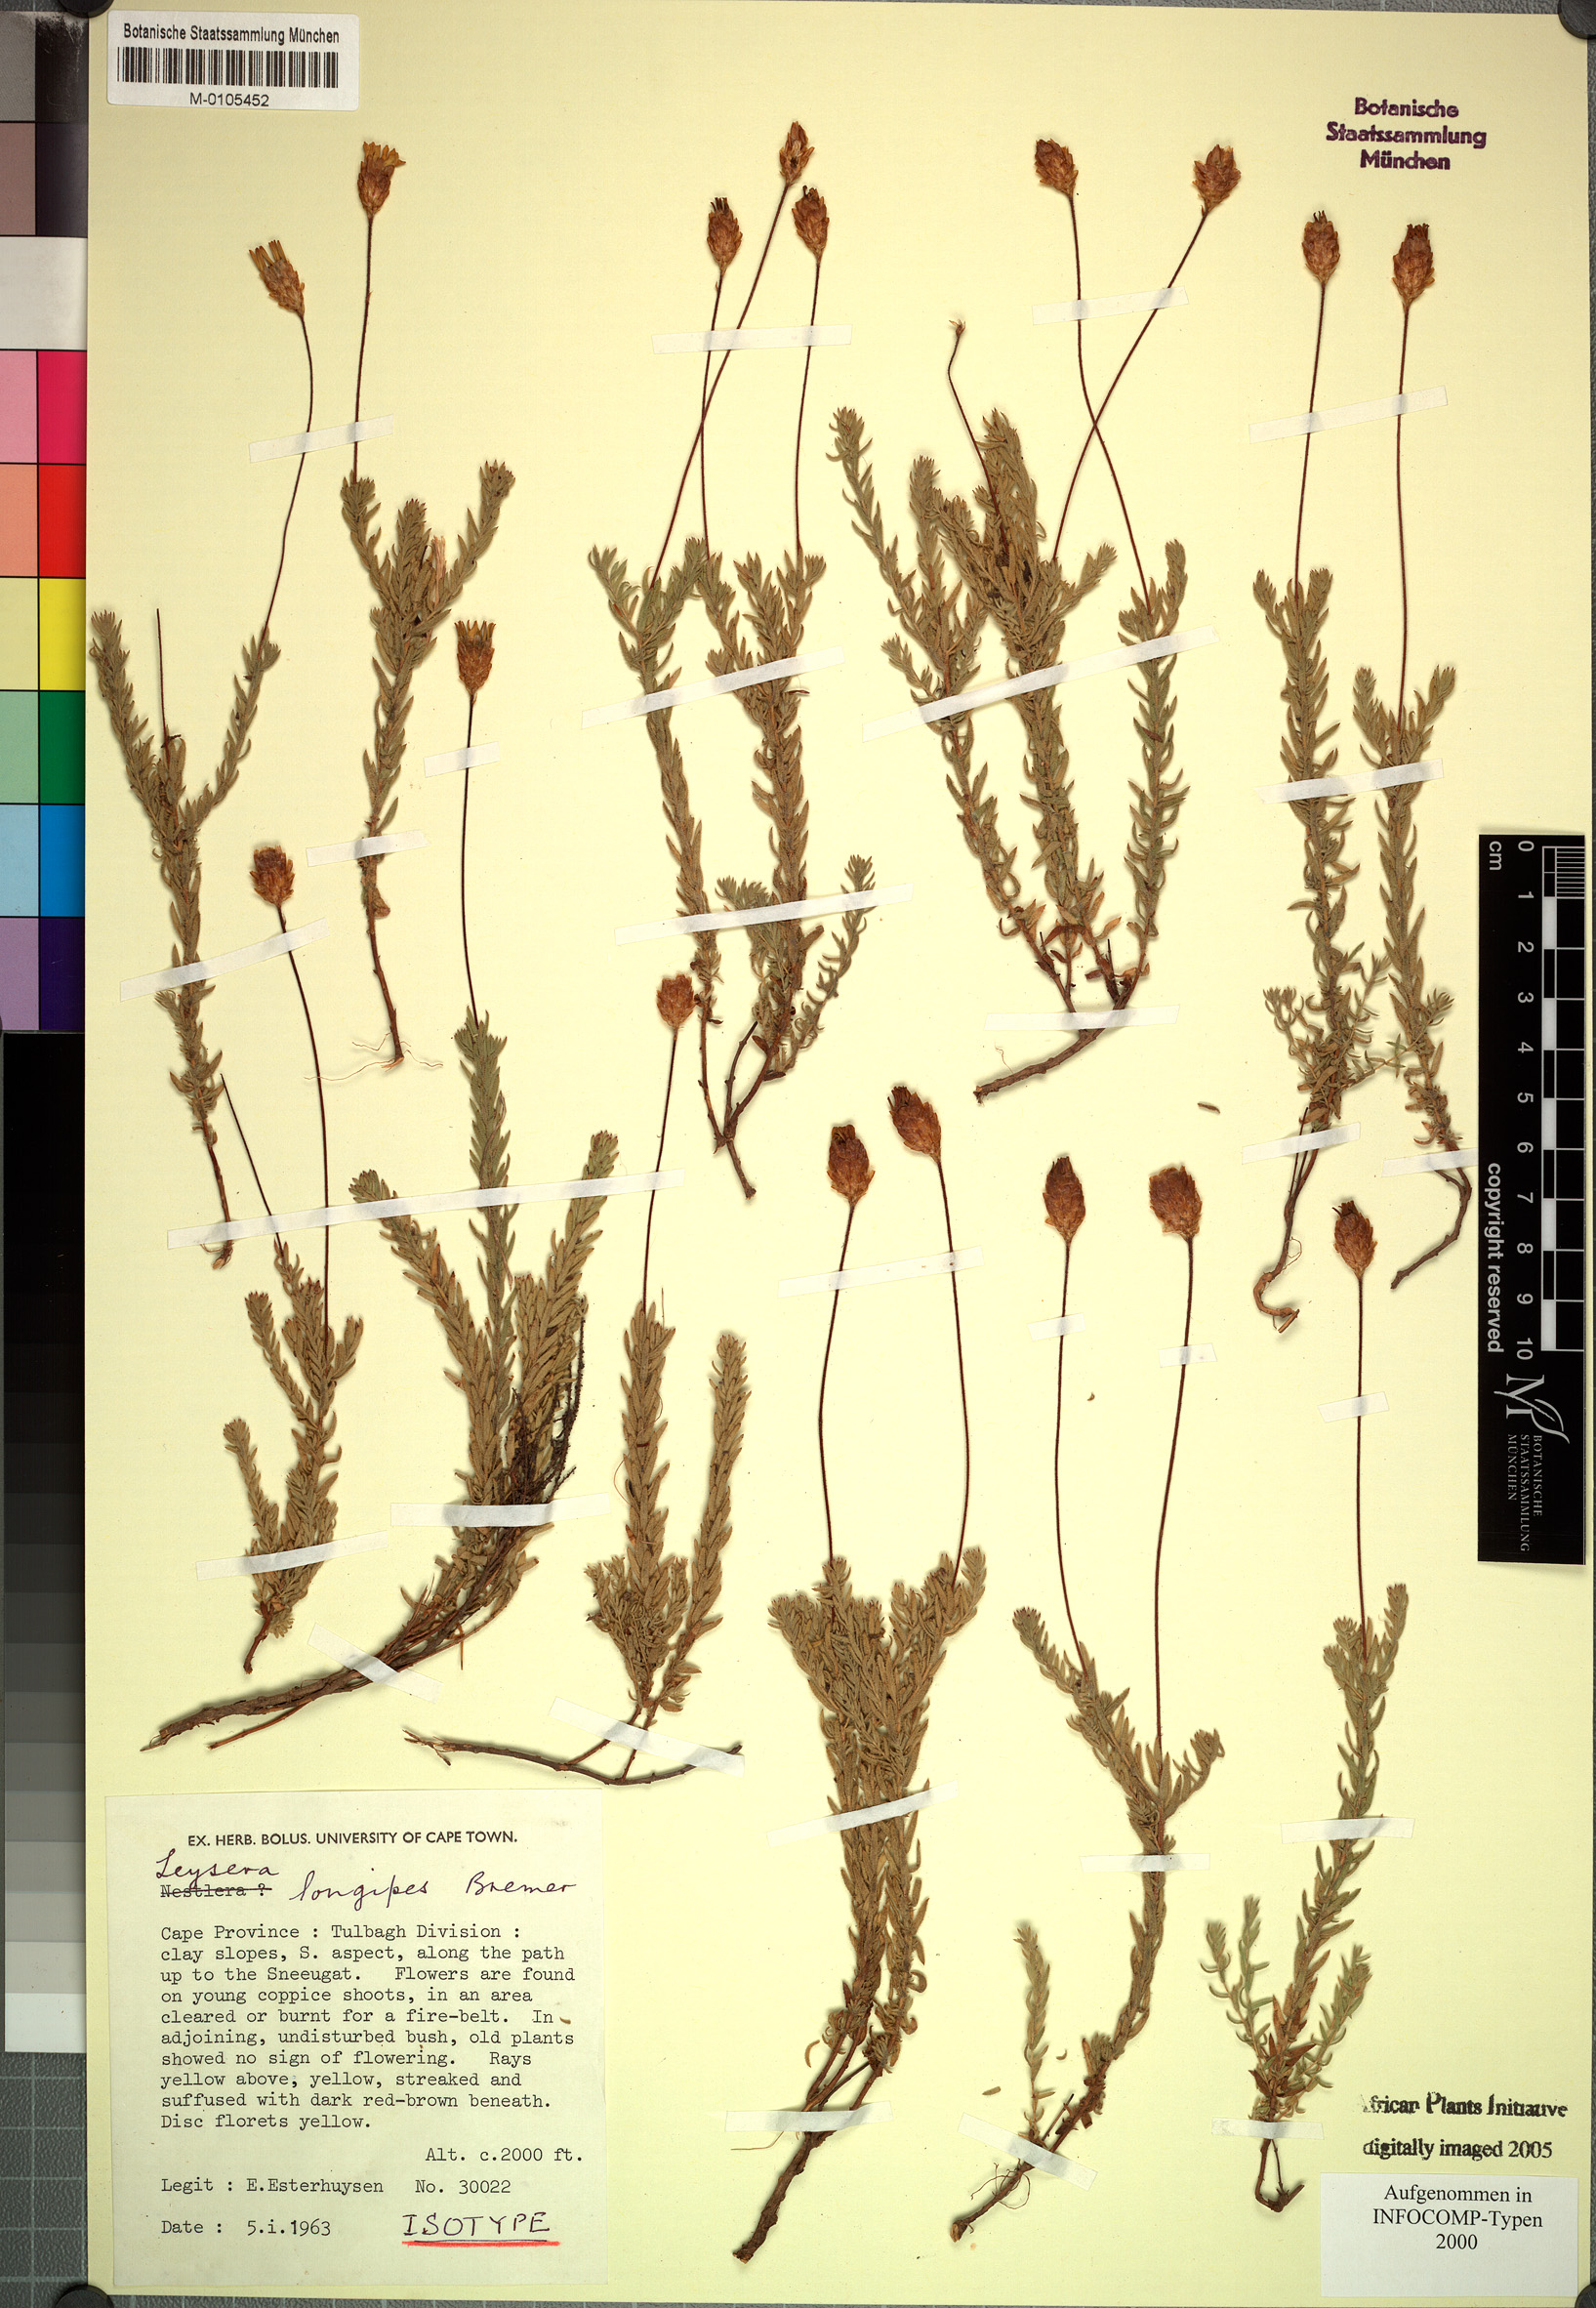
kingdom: Plantae
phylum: Tracheophyta
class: Magnoliopsida
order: Asterales
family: Asteraceae
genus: Oedera
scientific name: Oedera longipes
